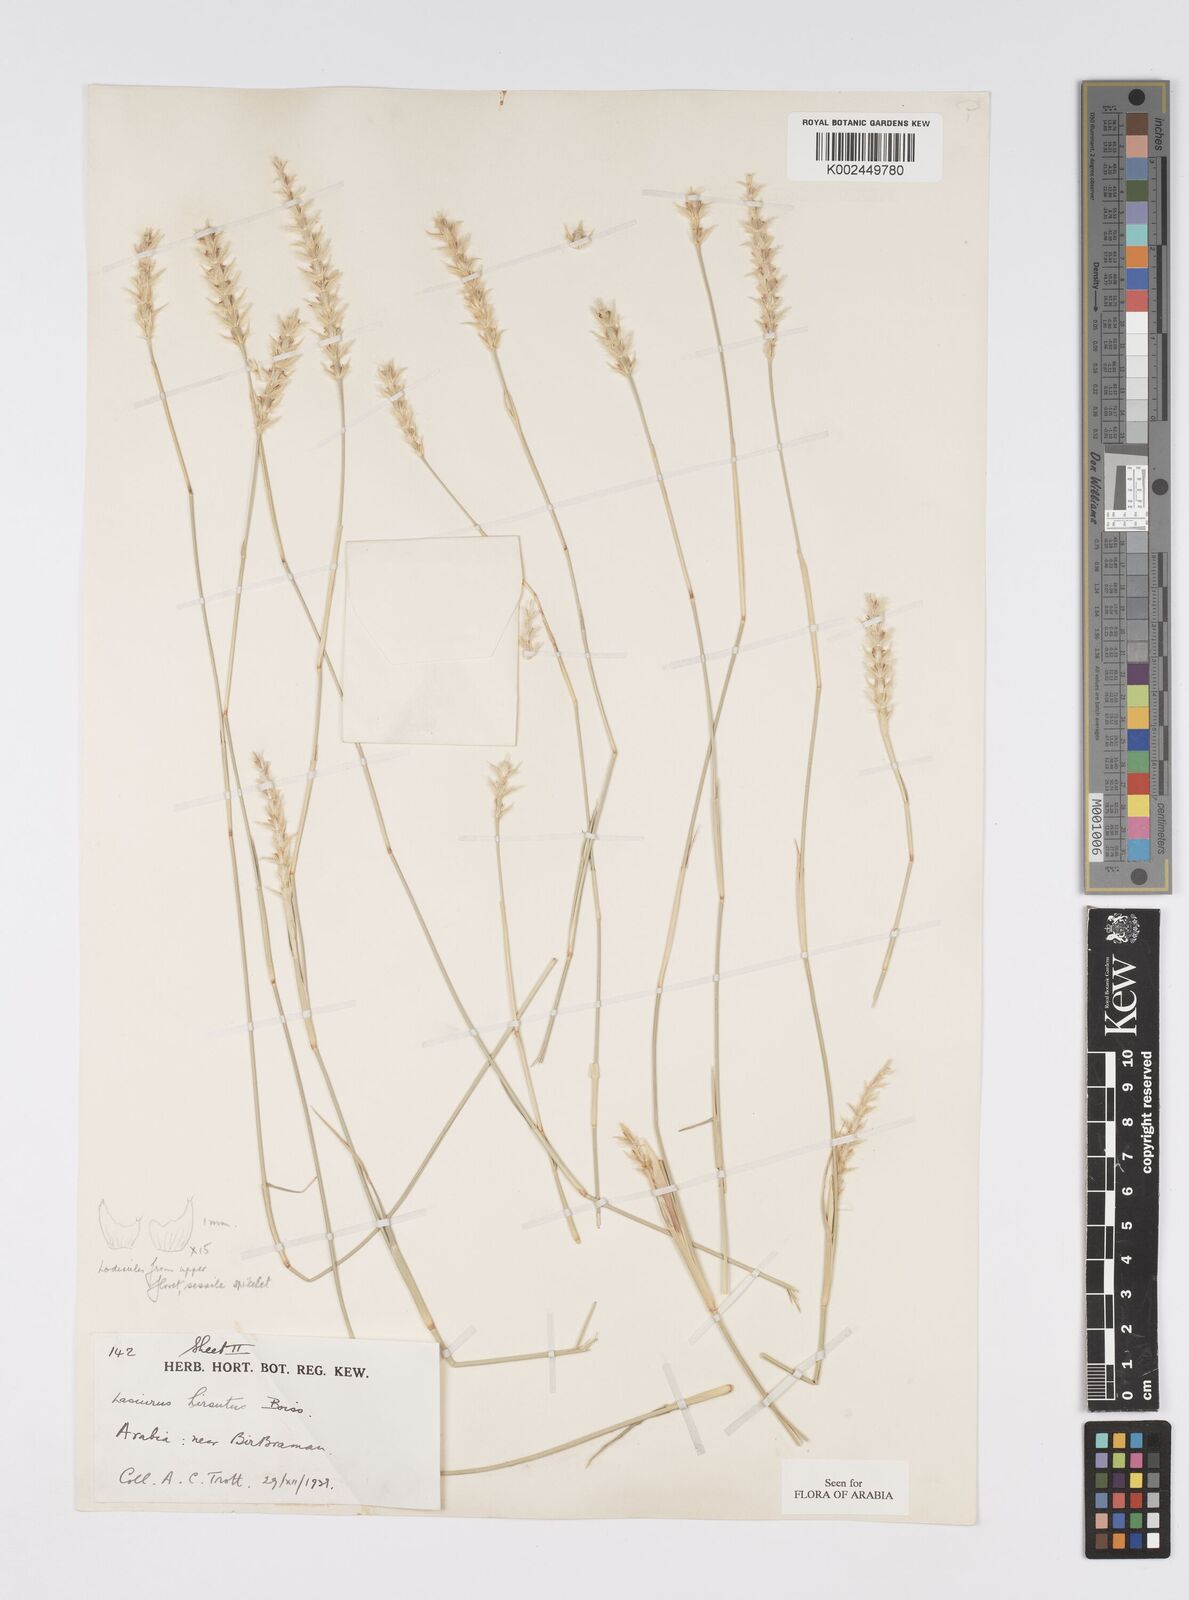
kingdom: Plantae
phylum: Tracheophyta
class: Liliopsida
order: Poales
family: Poaceae
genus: Lasiurus
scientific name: Lasiurus scindicus
